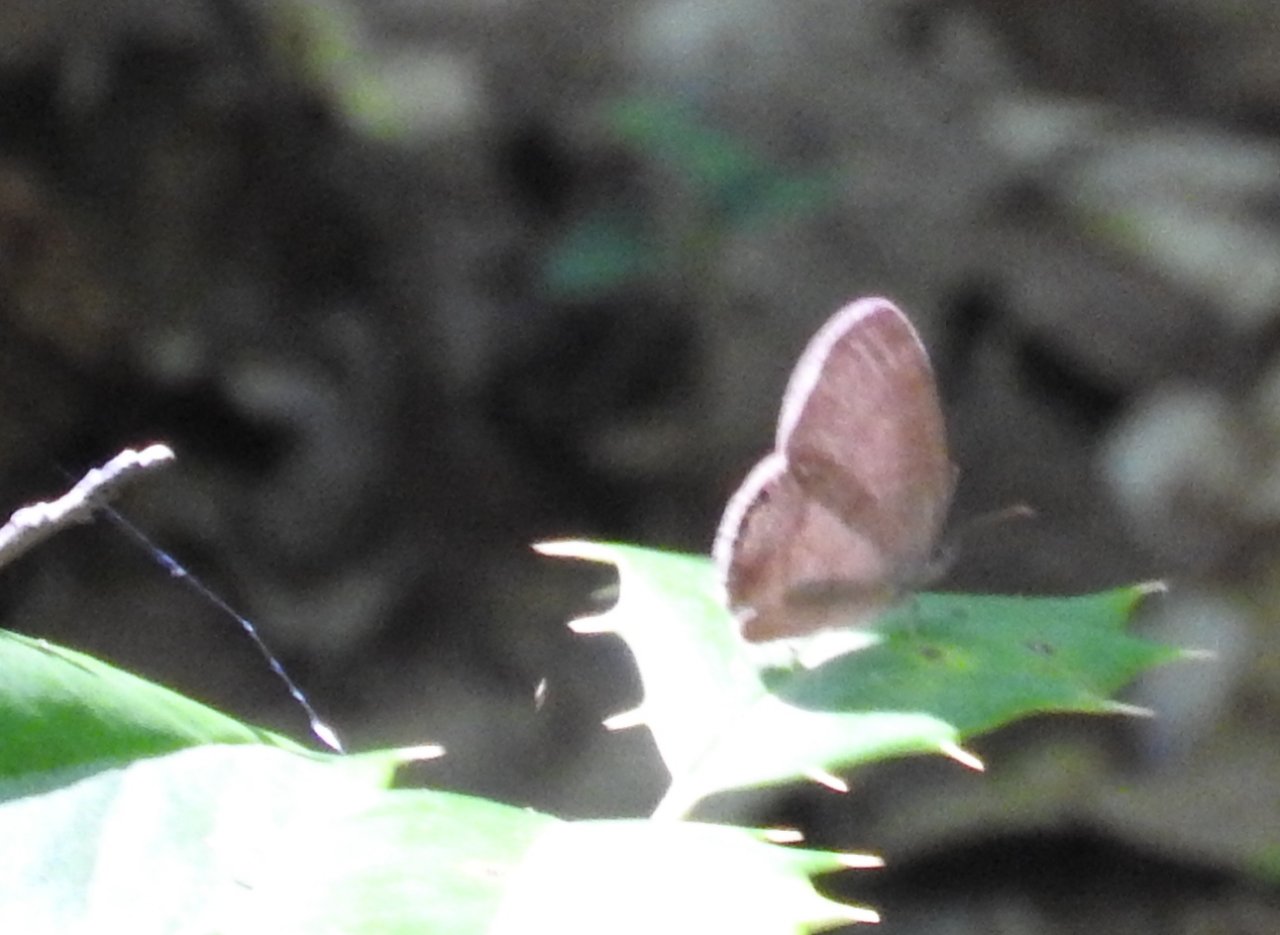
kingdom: Animalia
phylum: Arthropoda
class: Insecta
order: Lepidoptera
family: Nymphalidae
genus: Euptychia
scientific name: Euptychia cornelius
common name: Gemmed Satyr
